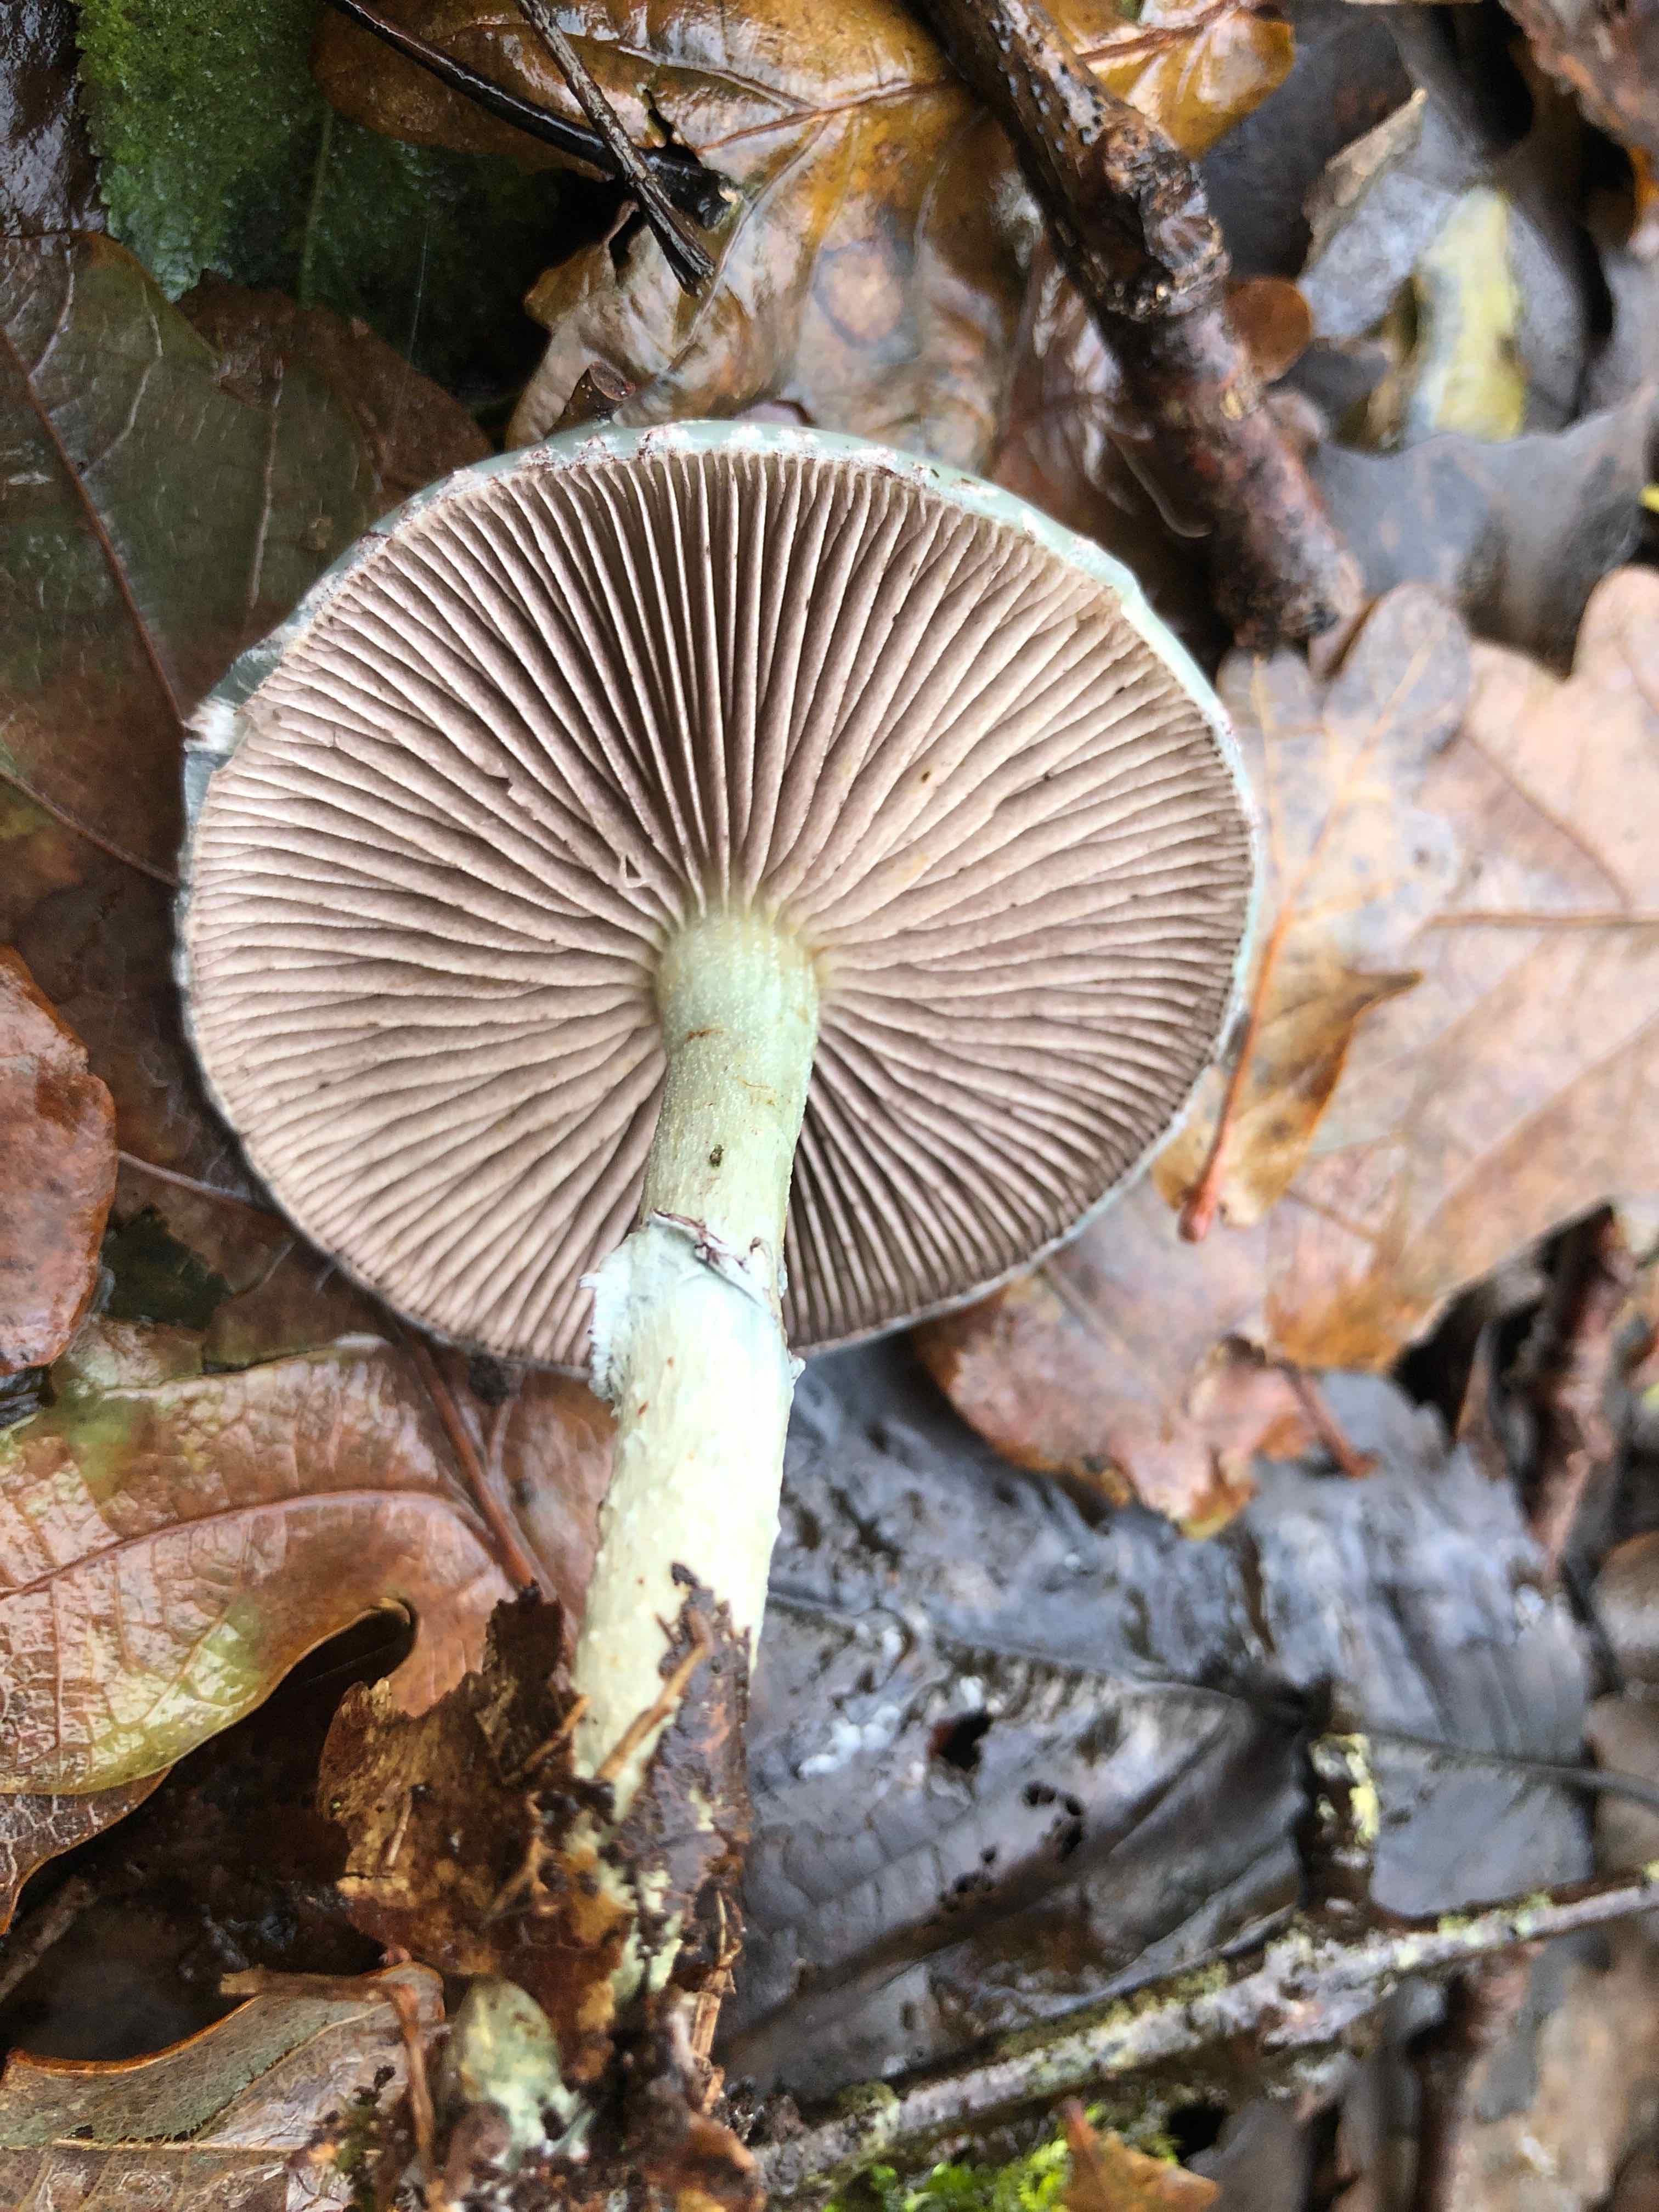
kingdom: Fungi
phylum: Basidiomycota
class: Agaricomycetes
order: Agaricales
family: Strophariaceae
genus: Stropharia
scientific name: Stropharia cyanea
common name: blågrøn bredblad
